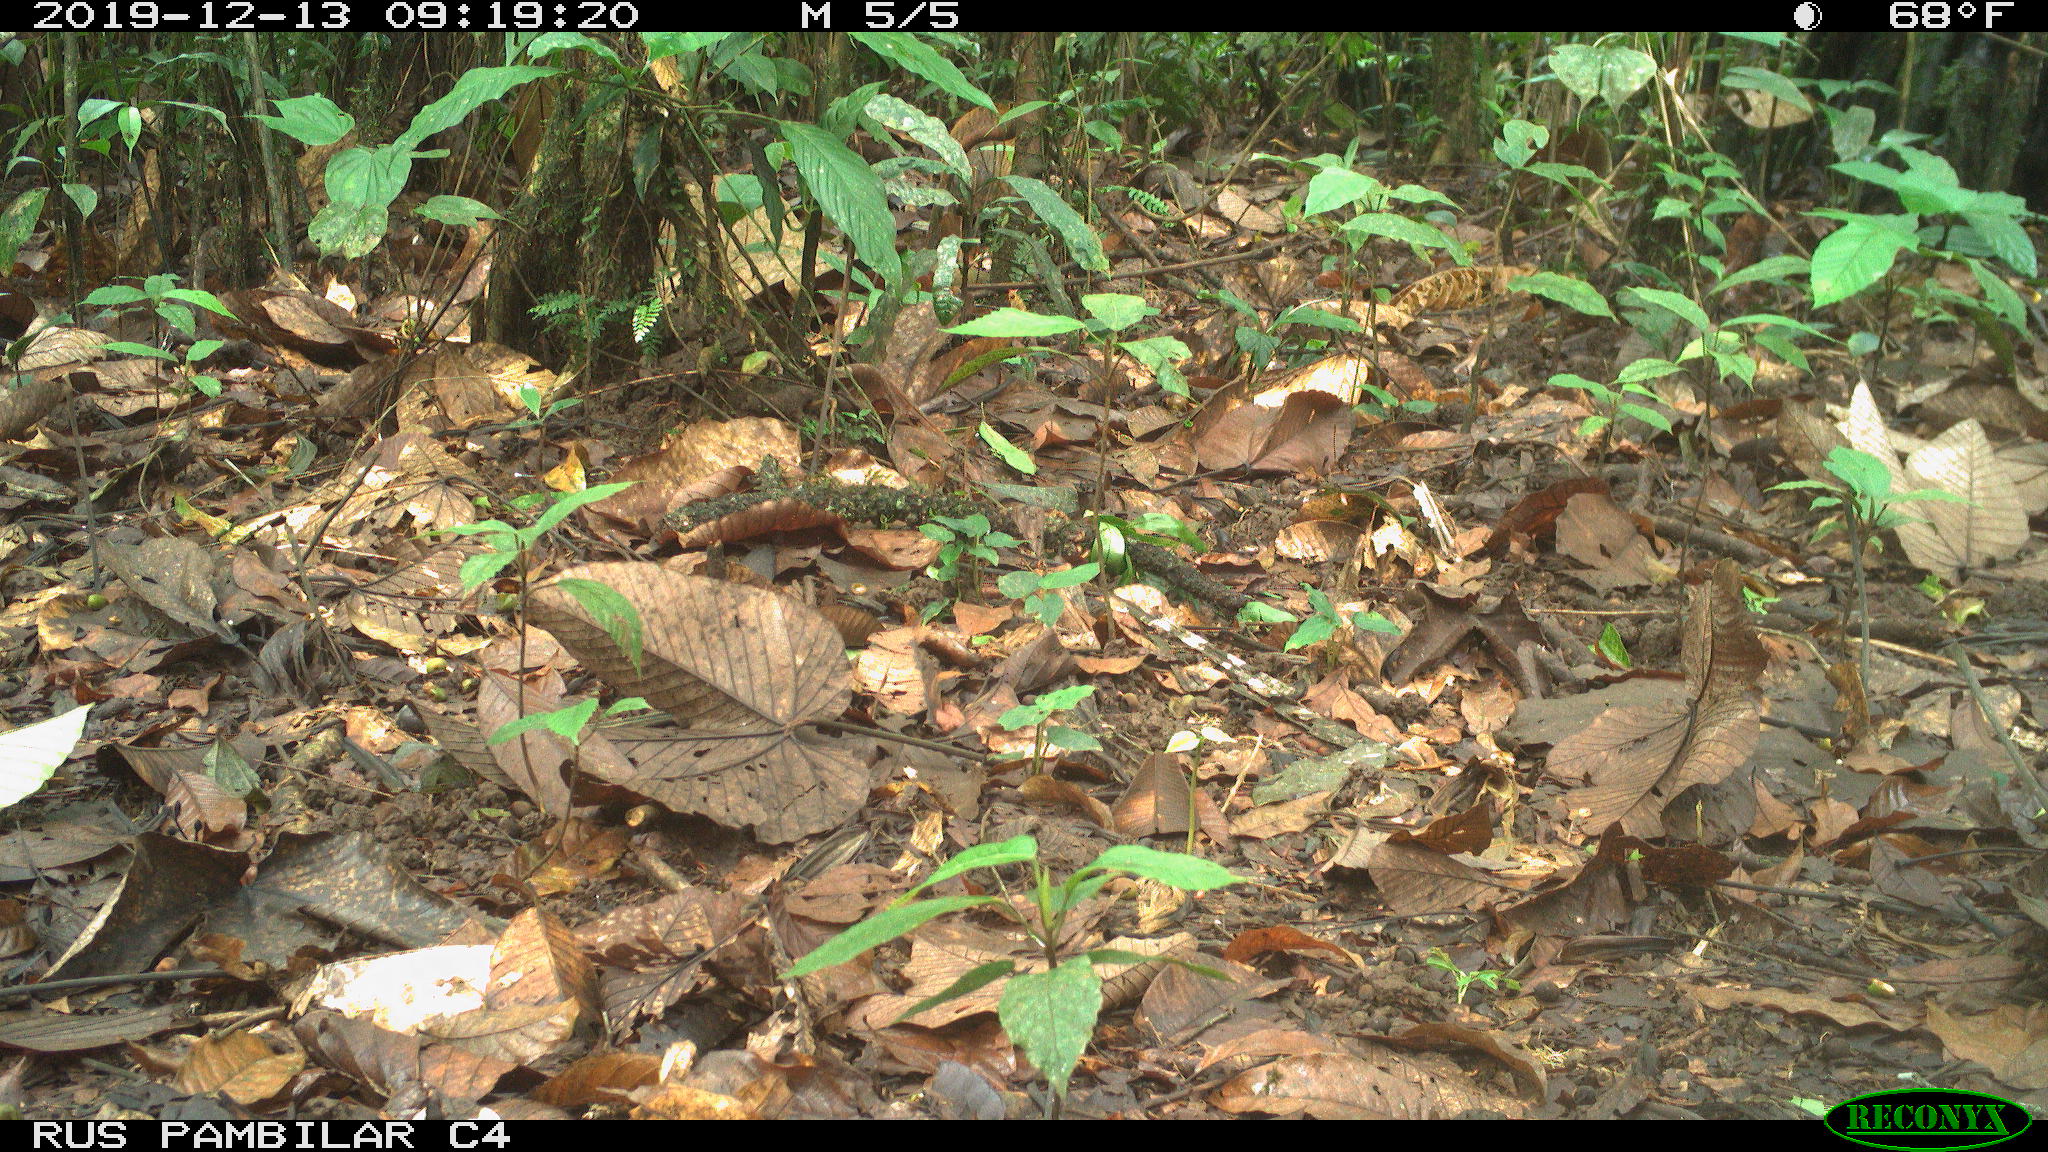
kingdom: Animalia
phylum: Chordata
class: Mammalia
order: Rodentia
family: Dasyproctidae
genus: Dasyprocta
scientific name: Dasyprocta punctata
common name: Central american agouti
